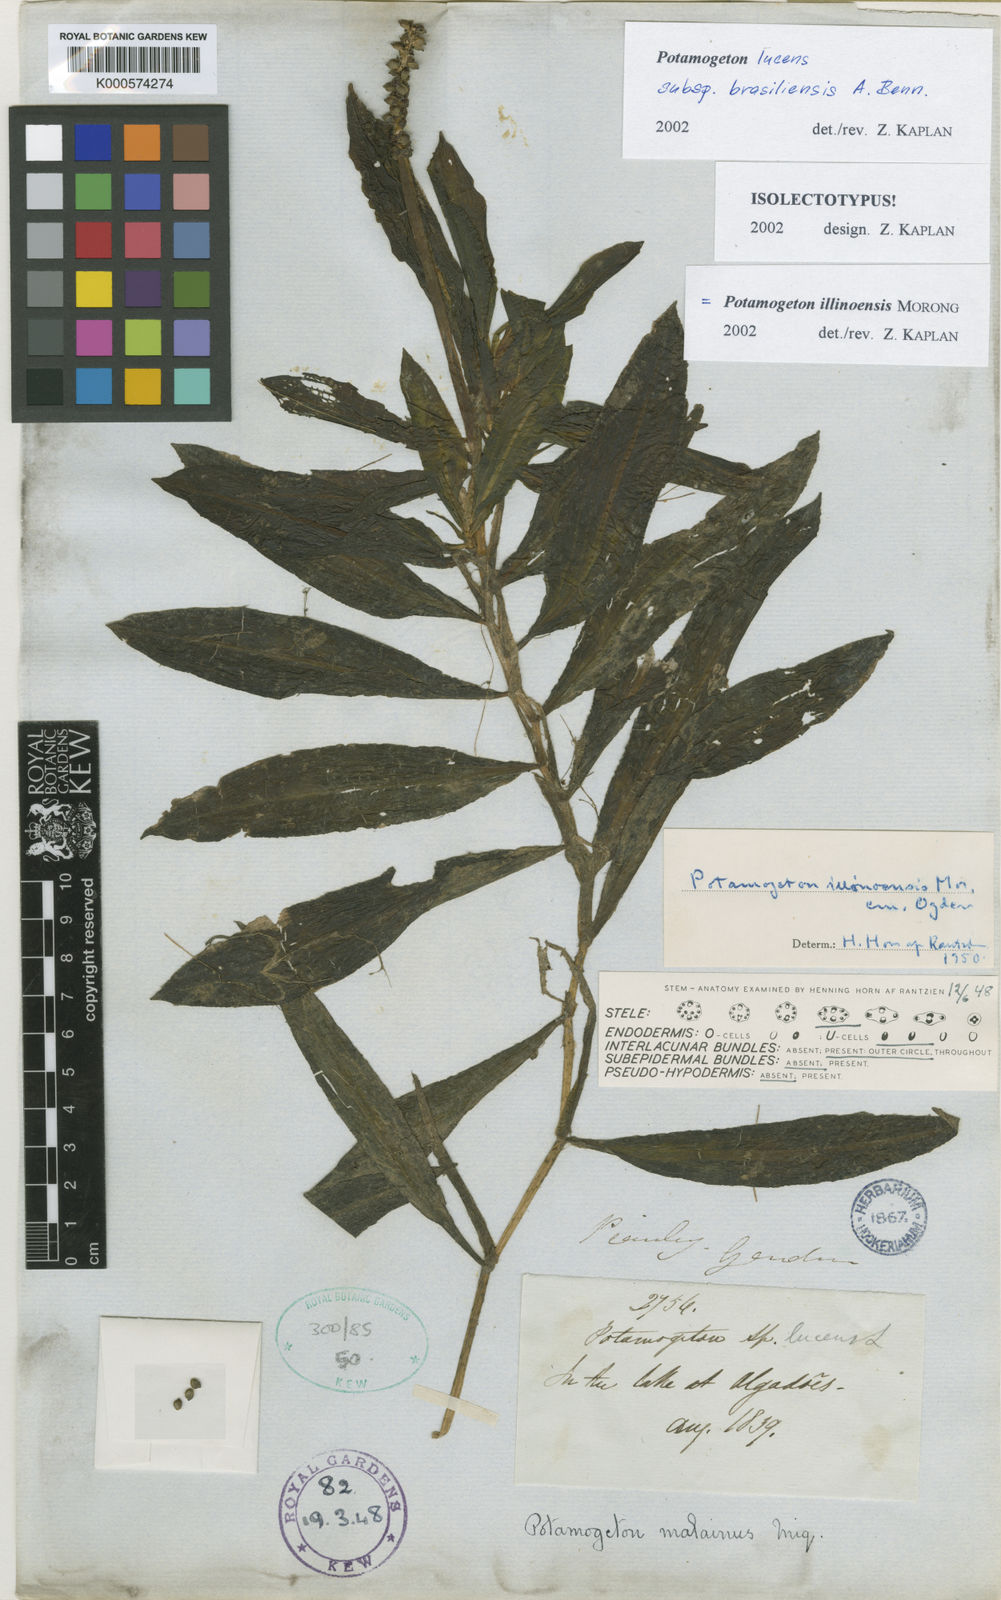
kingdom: Plantae
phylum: Tracheophyta
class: Liliopsida
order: Alismatales
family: Potamogetonaceae
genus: Potamogeton
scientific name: Potamogeton illinoensis
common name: Illinois pondweed
